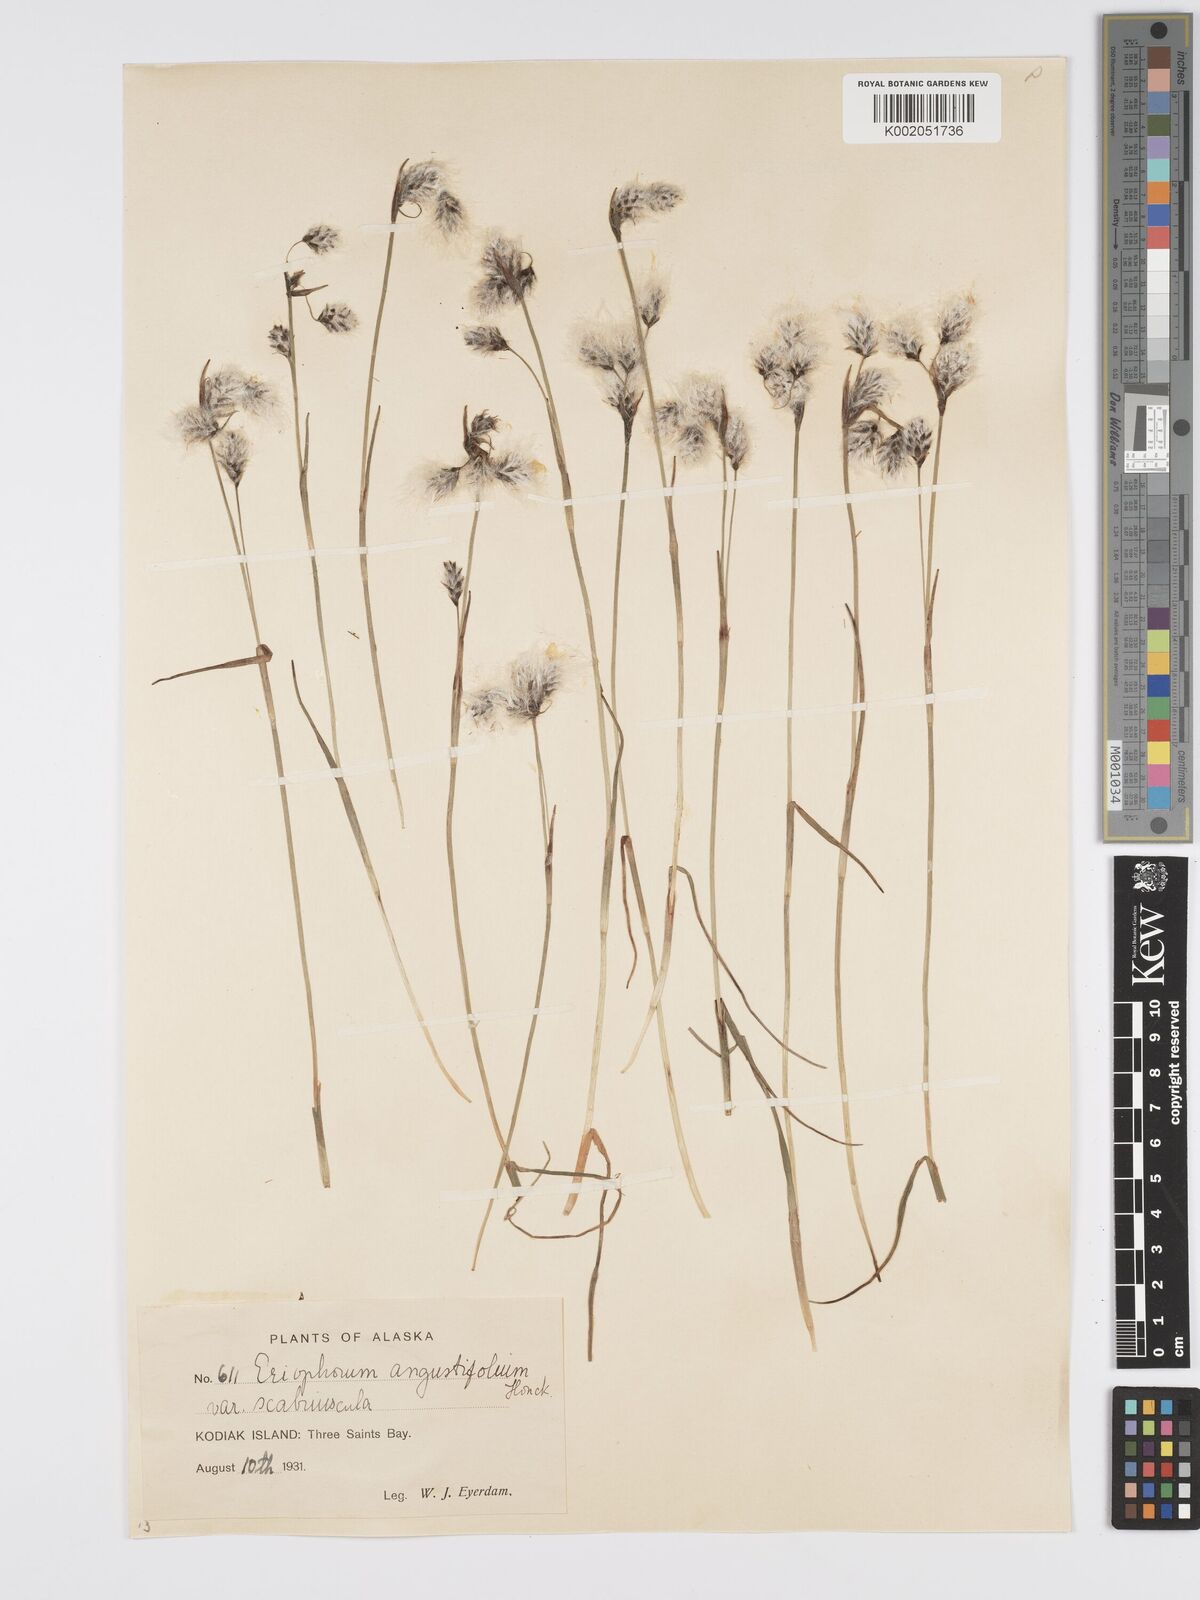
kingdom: Plantae
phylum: Tracheophyta
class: Liliopsida
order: Poales
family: Cyperaceae
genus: Eriophorum
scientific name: Eriophorum angustifolium
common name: Common cottongrass
